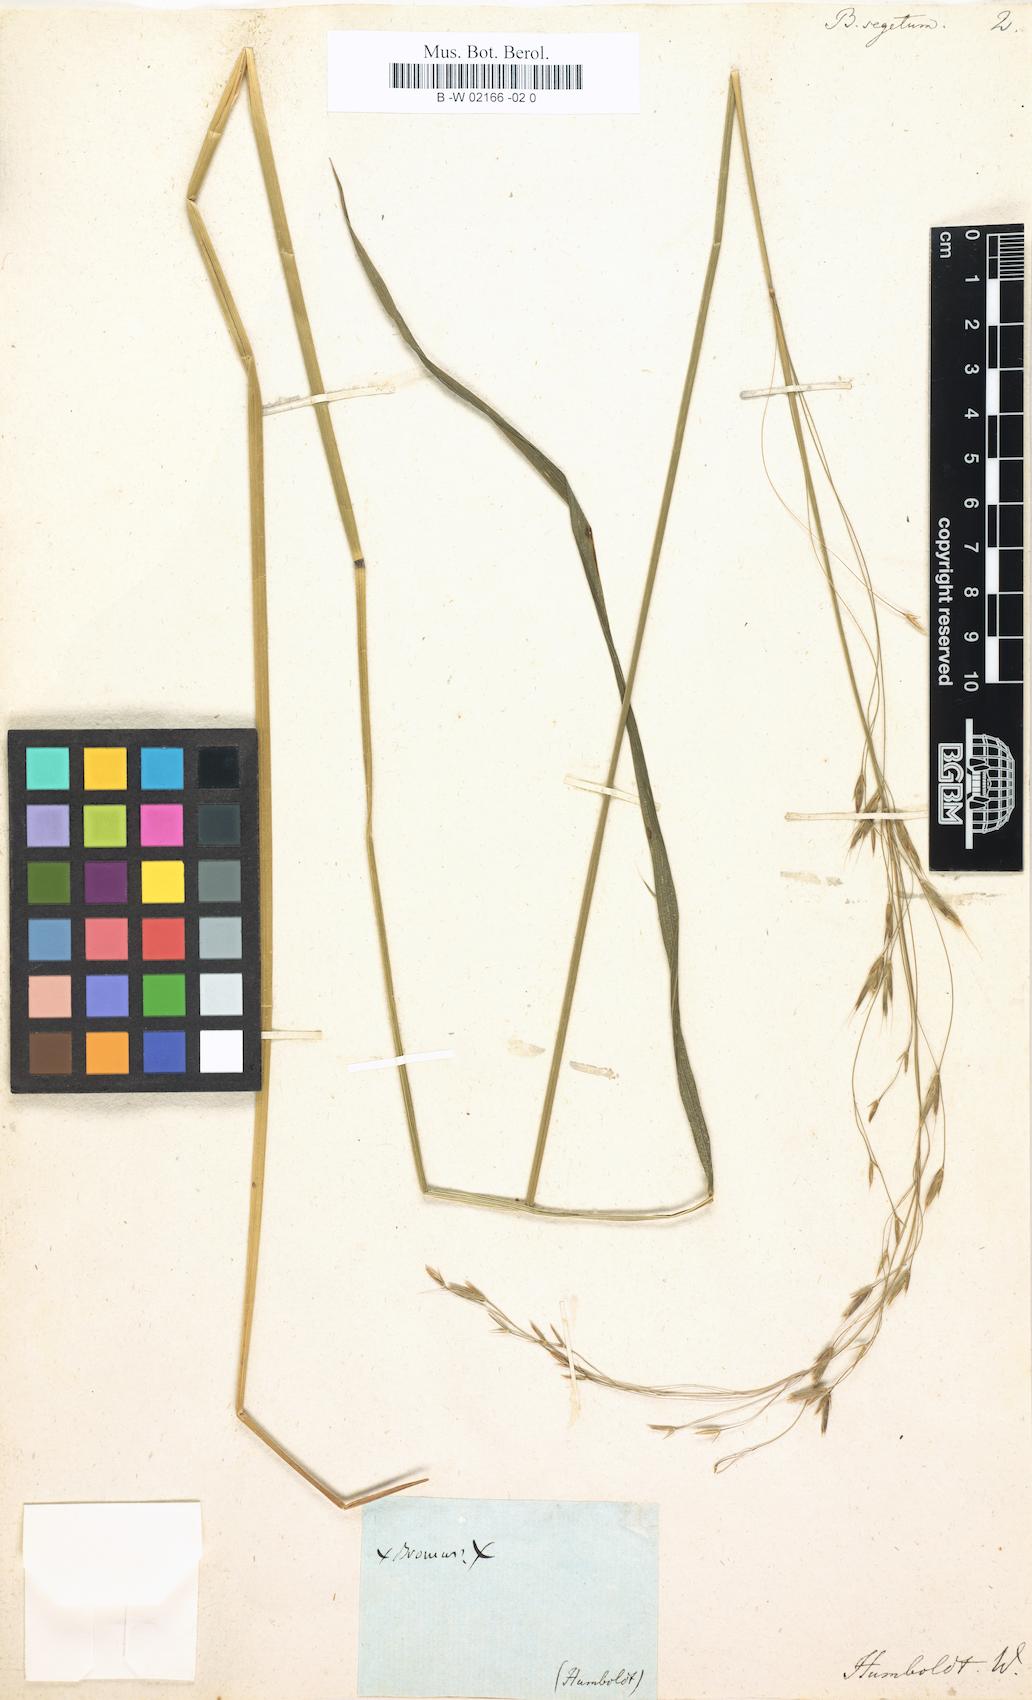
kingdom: Plantae
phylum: Tracheophyta
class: Liliopsida
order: Poales
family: Poaceae
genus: Bromus
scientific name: Bromus segetum
